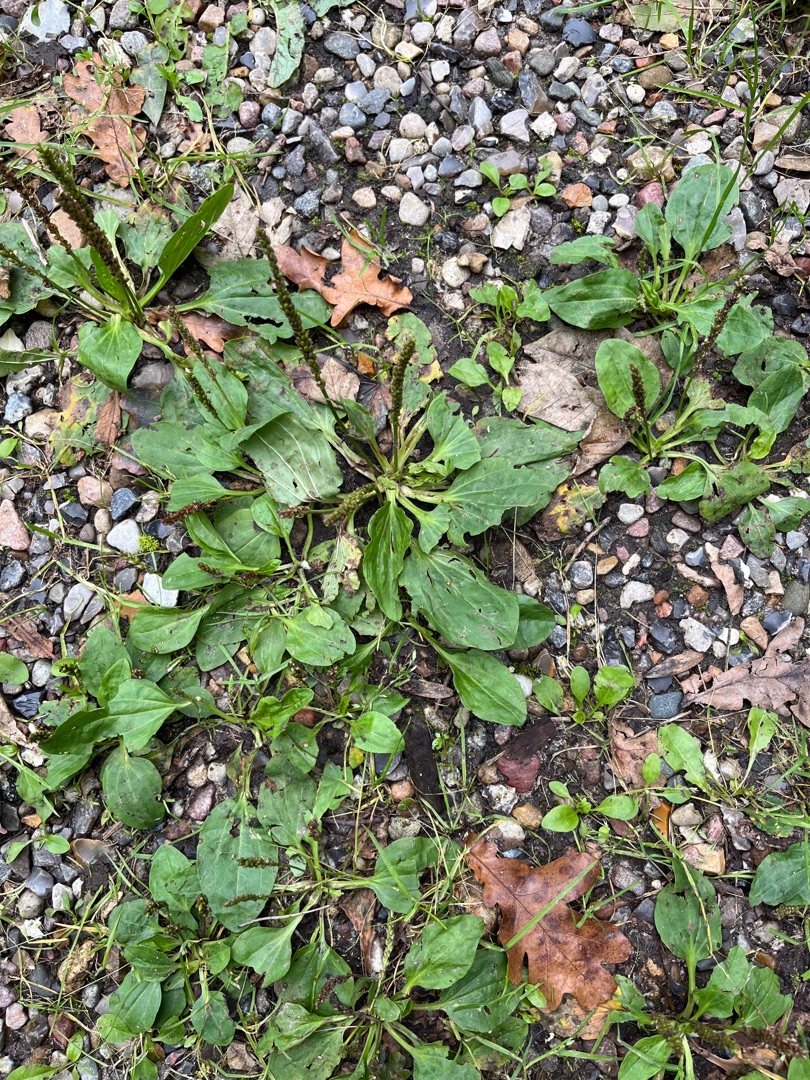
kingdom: Plantae
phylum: Tracheophyta
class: Magnoliopsida
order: Lamiales
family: Plantaginaceae
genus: Plantago
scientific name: Plantago major
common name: Glat vejbred
